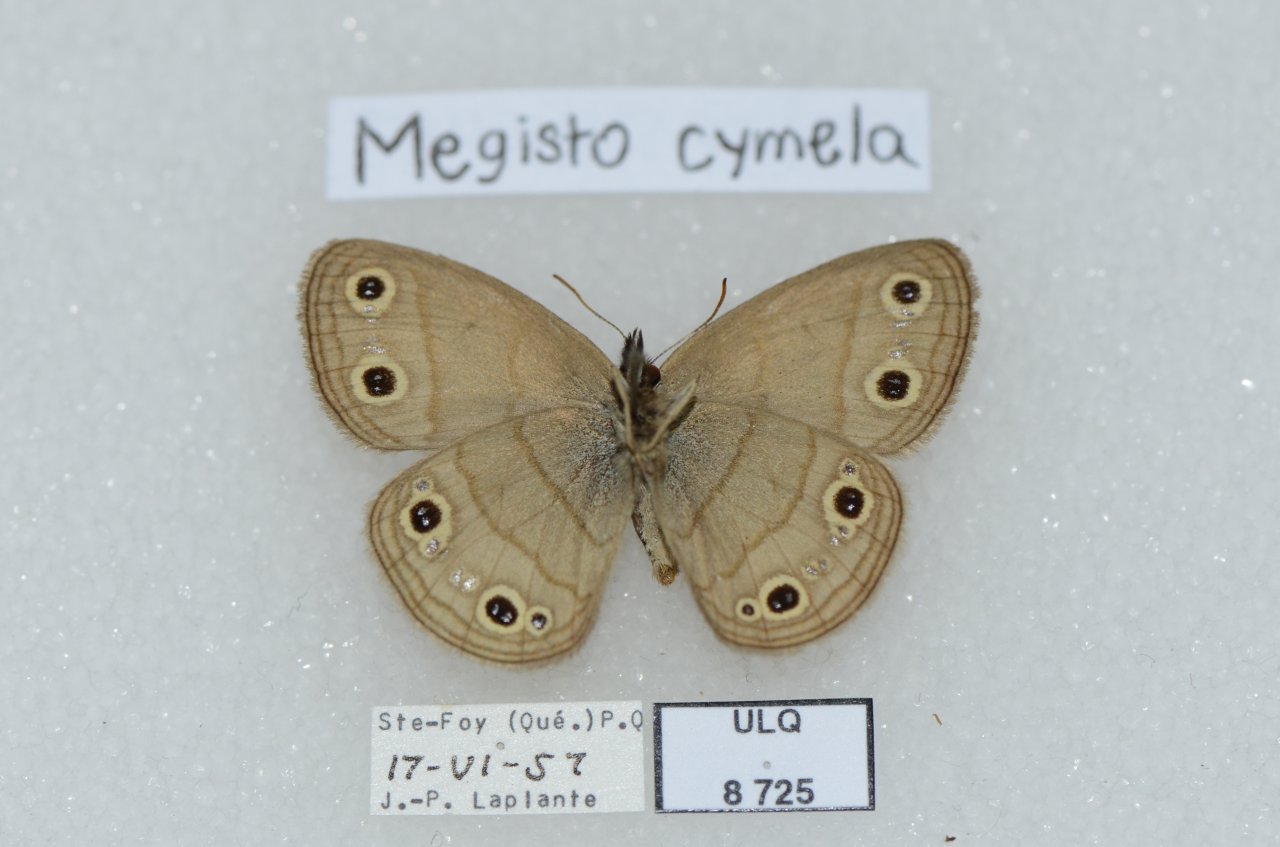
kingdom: Animalia
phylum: Arthropoda
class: Insecta
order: Lepidoptera
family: Nymphalidae
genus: Euptychia
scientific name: Euptychia cymela
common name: Little Wood Satyr
